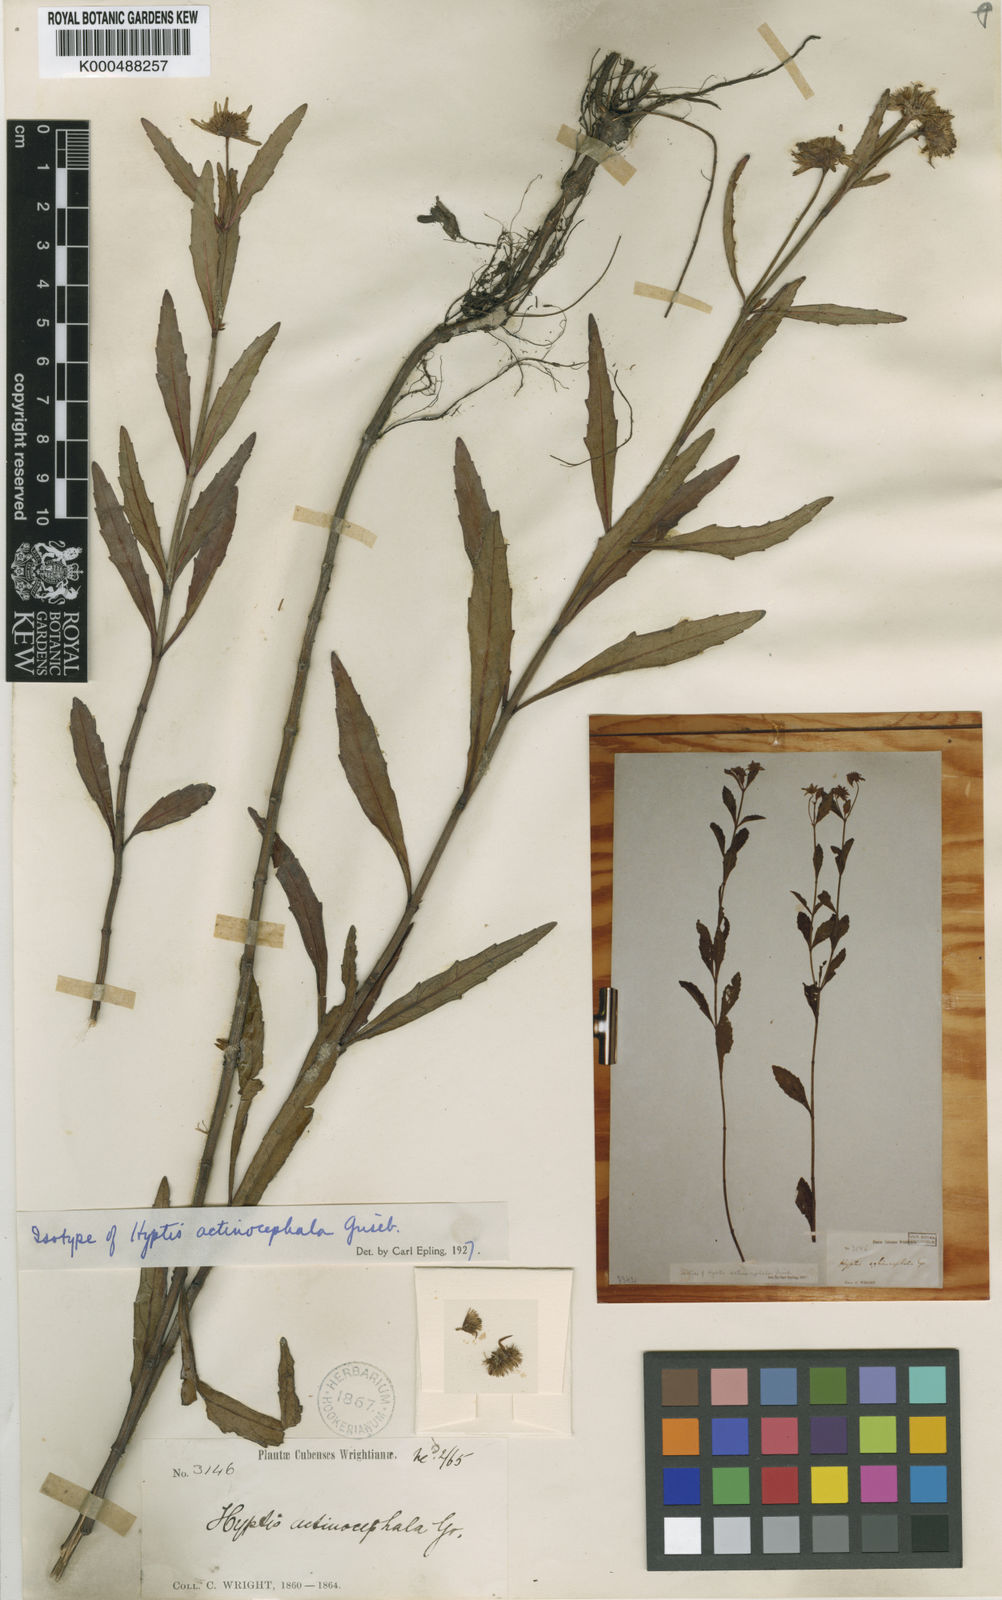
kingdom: Plantae
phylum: Tracheophyta
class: Magnoliopsida
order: Lamiales
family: Lamiaceae
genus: Hyptis
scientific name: Hyptis actinocephala
